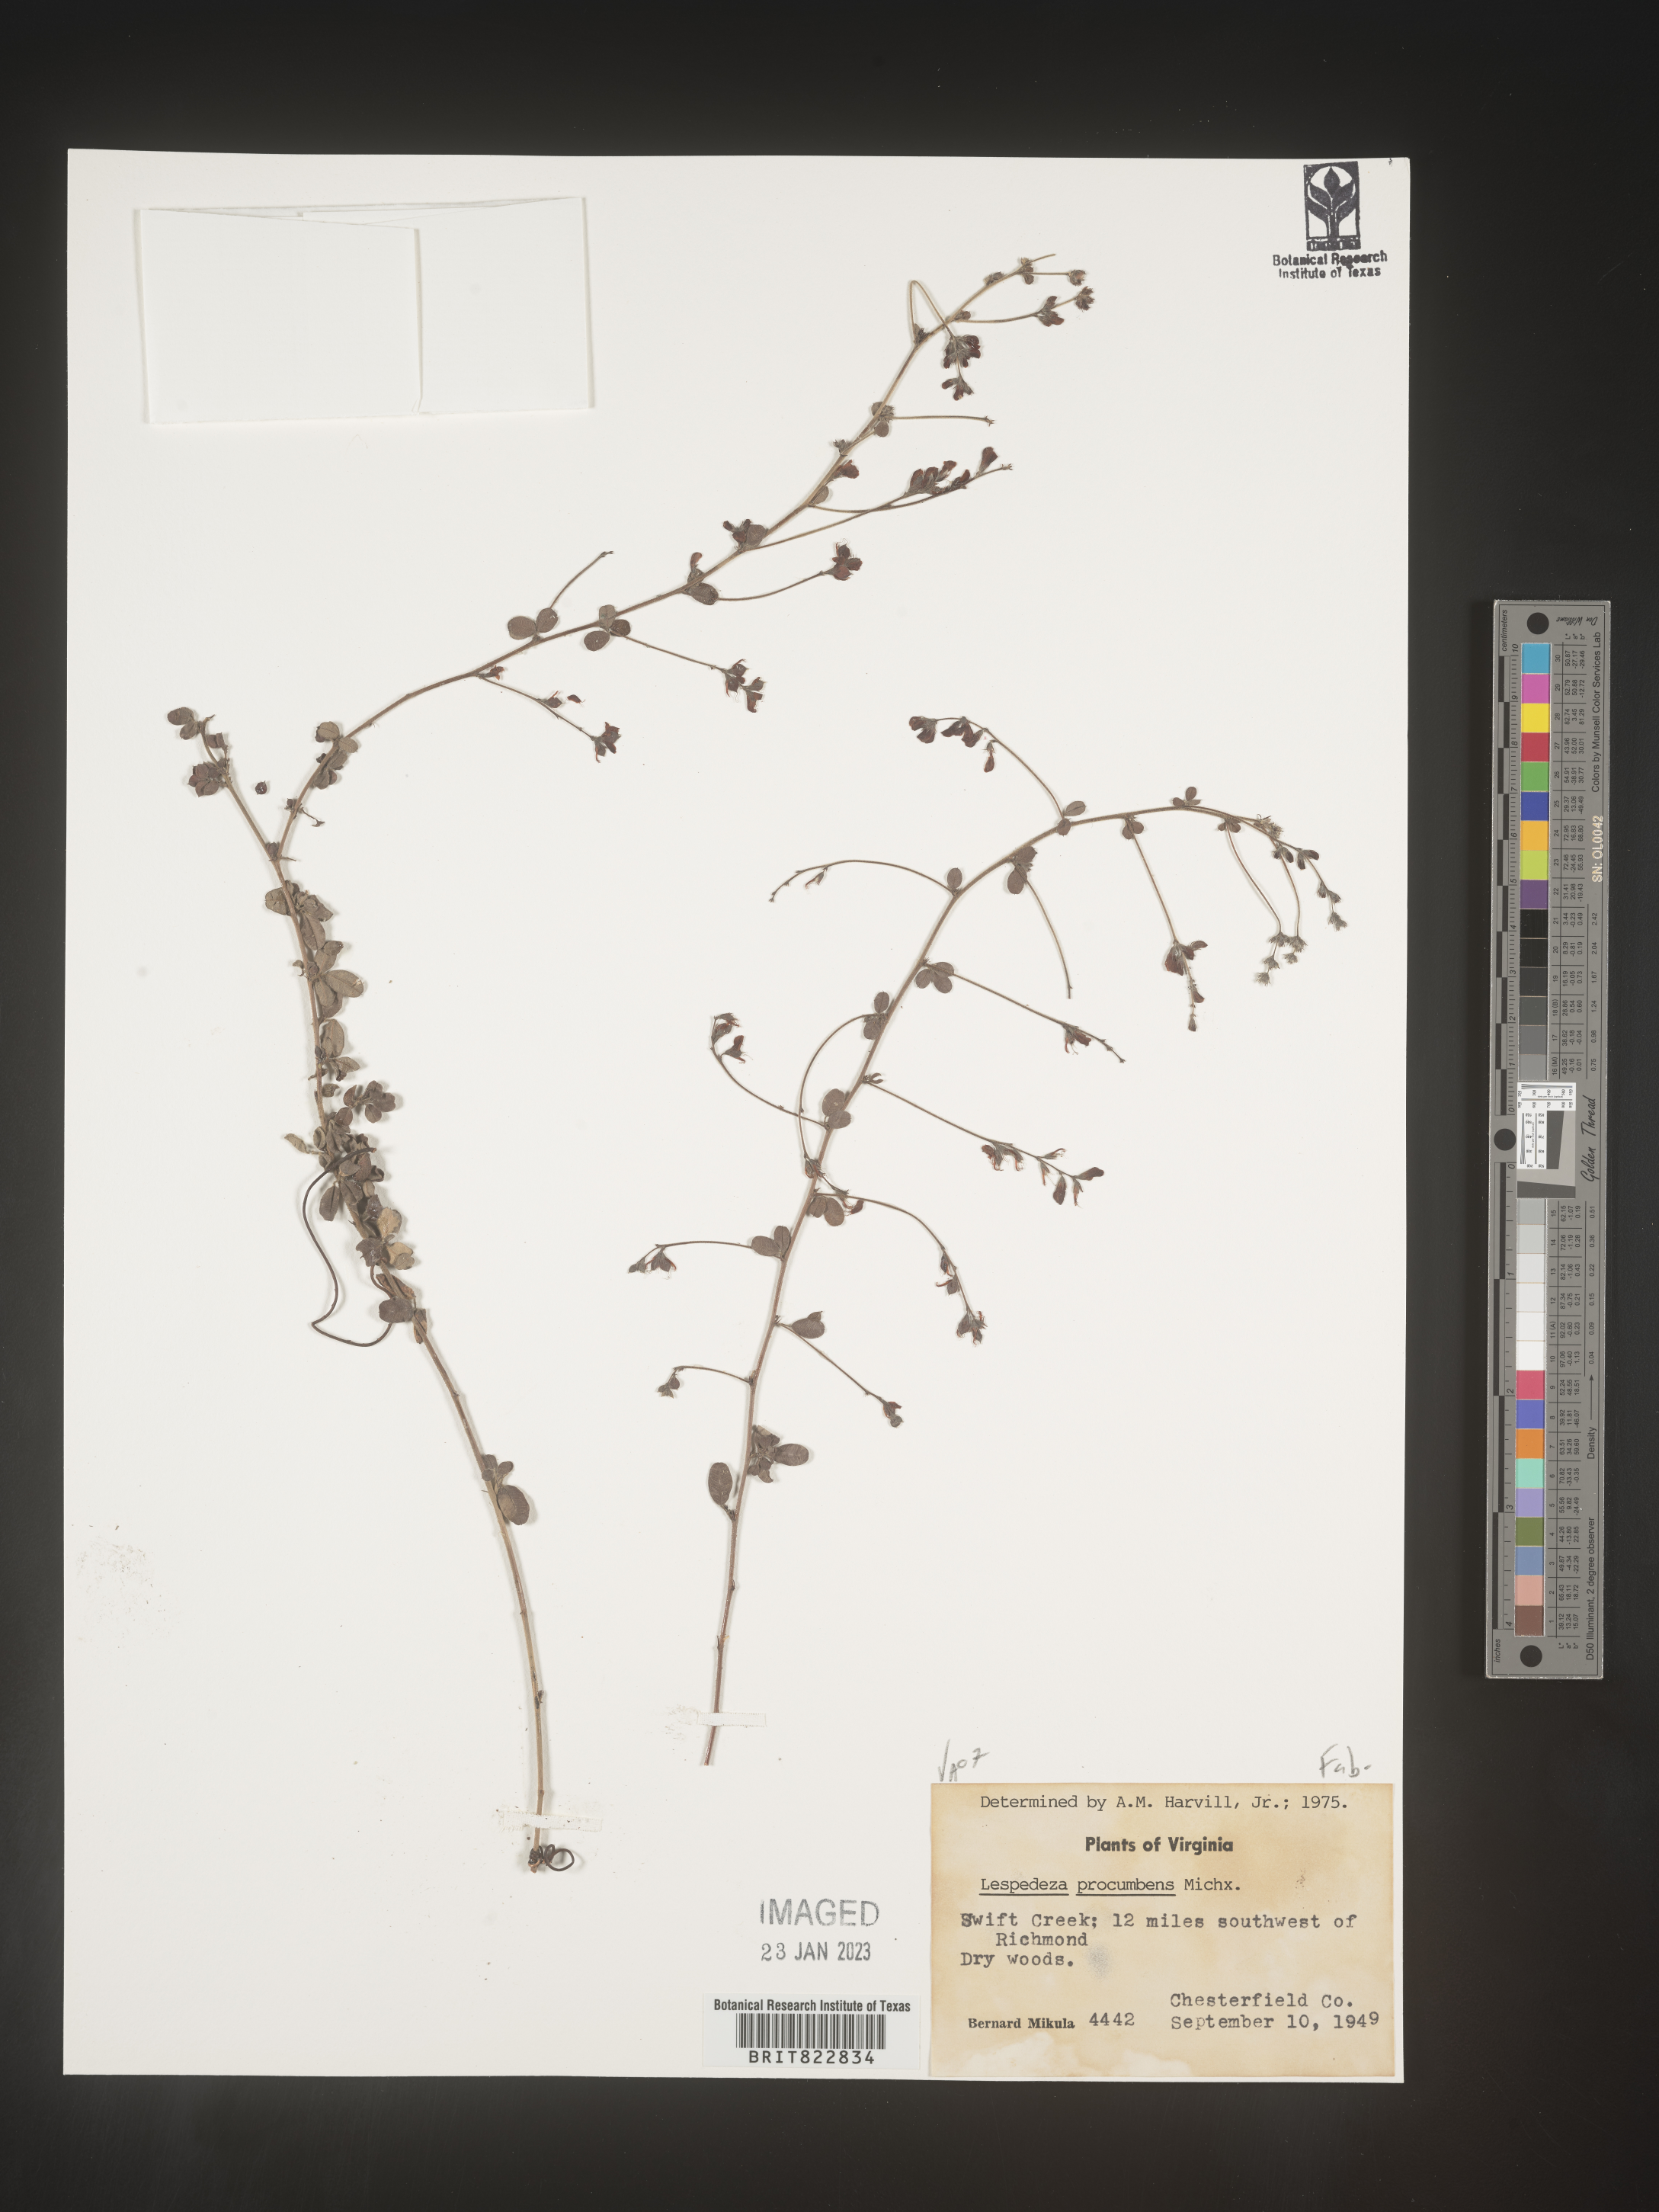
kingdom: Plantae
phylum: Tracheophyta
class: Magnoliopsida
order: Fabales
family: Fabaceae
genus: Lespedeza
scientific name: Lespedeza procumbens
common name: Downy trailing bush-clover
